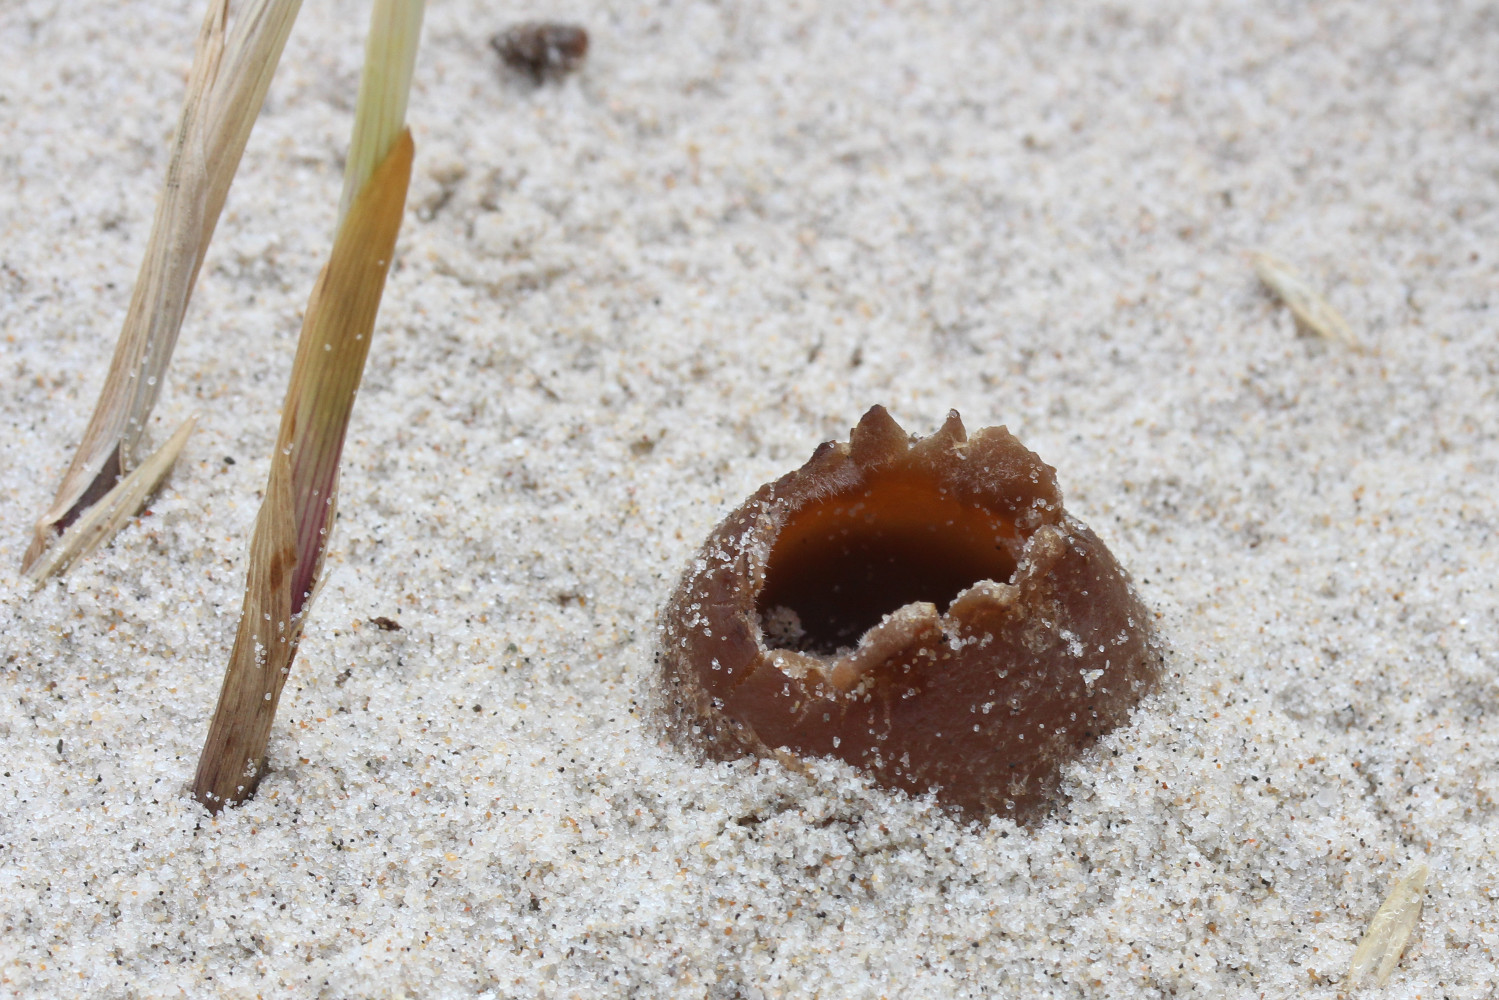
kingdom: Fungi
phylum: Ascomycota
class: Pezizomycetes
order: Pezizales
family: Pyronemataceae
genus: Lamprospora
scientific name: Lamprospora ammophila
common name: klit-bægersvamp
